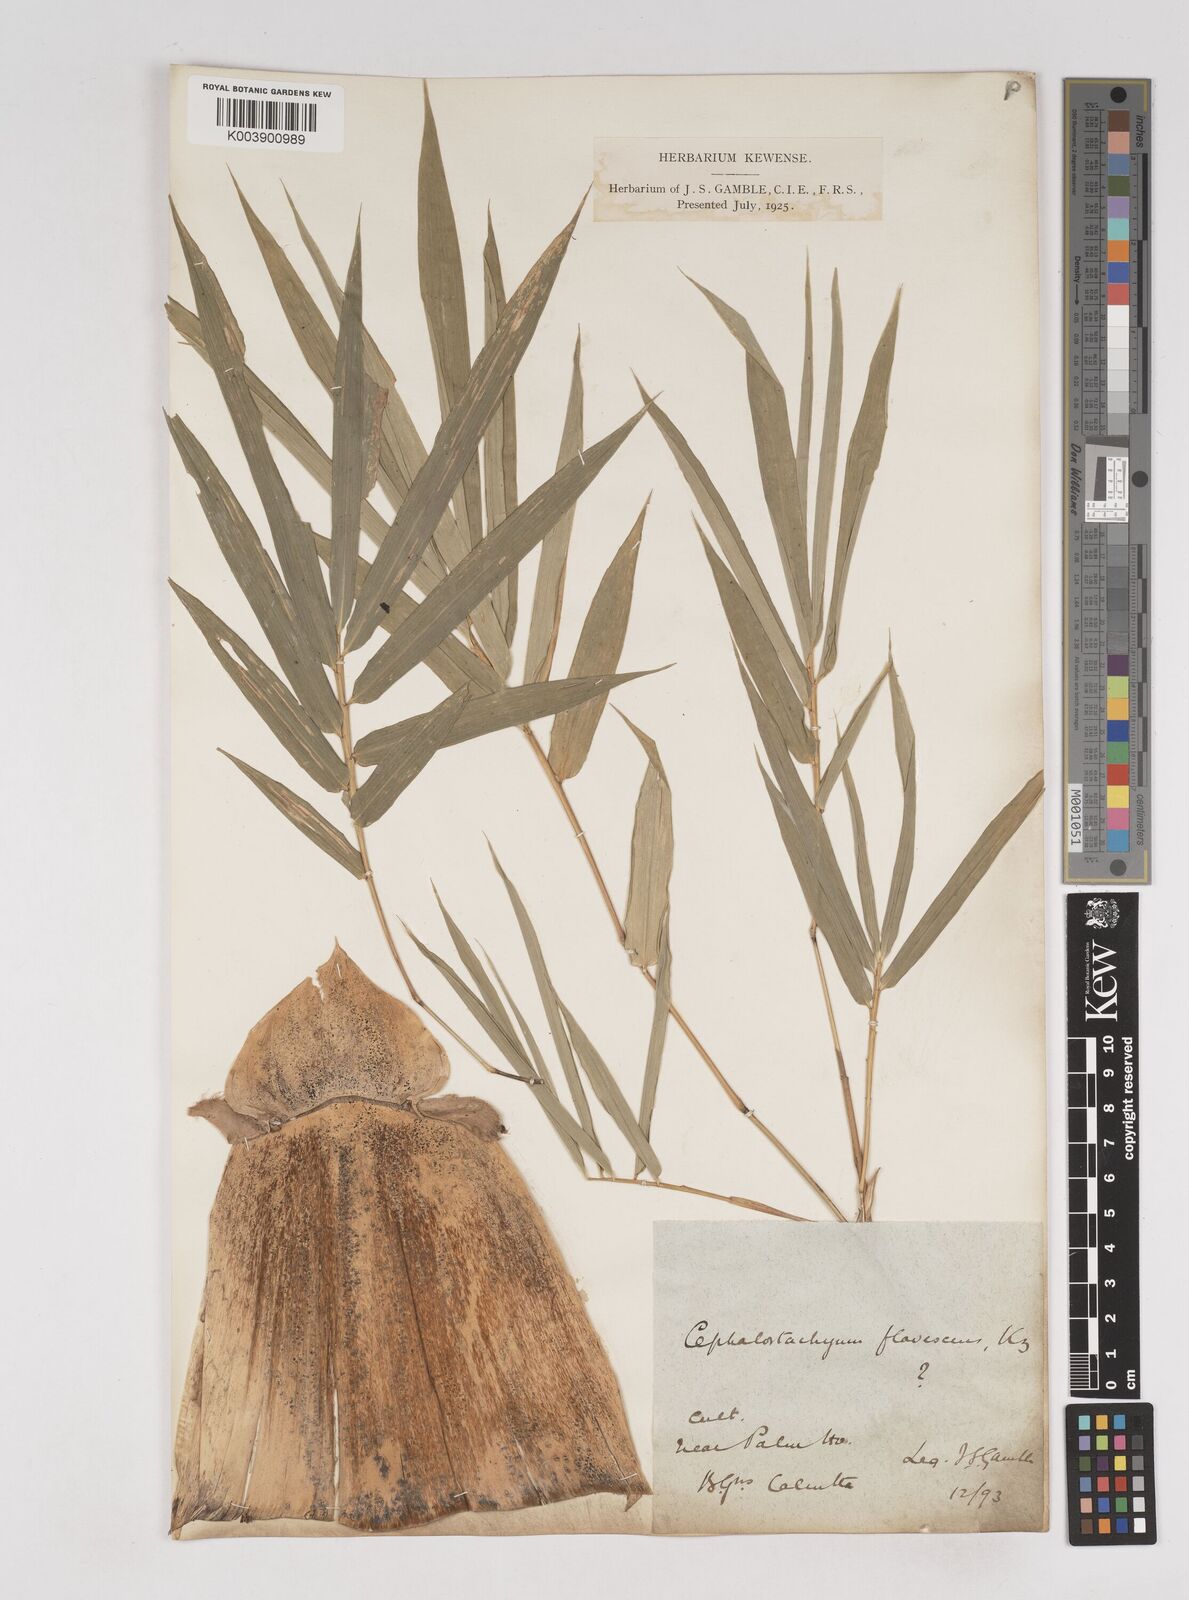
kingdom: Plantae
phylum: Tracheophyta
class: Liliopsida
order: Poales
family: Poaceae
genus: Cephalostachyum
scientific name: Cephalostachyum flavescens
